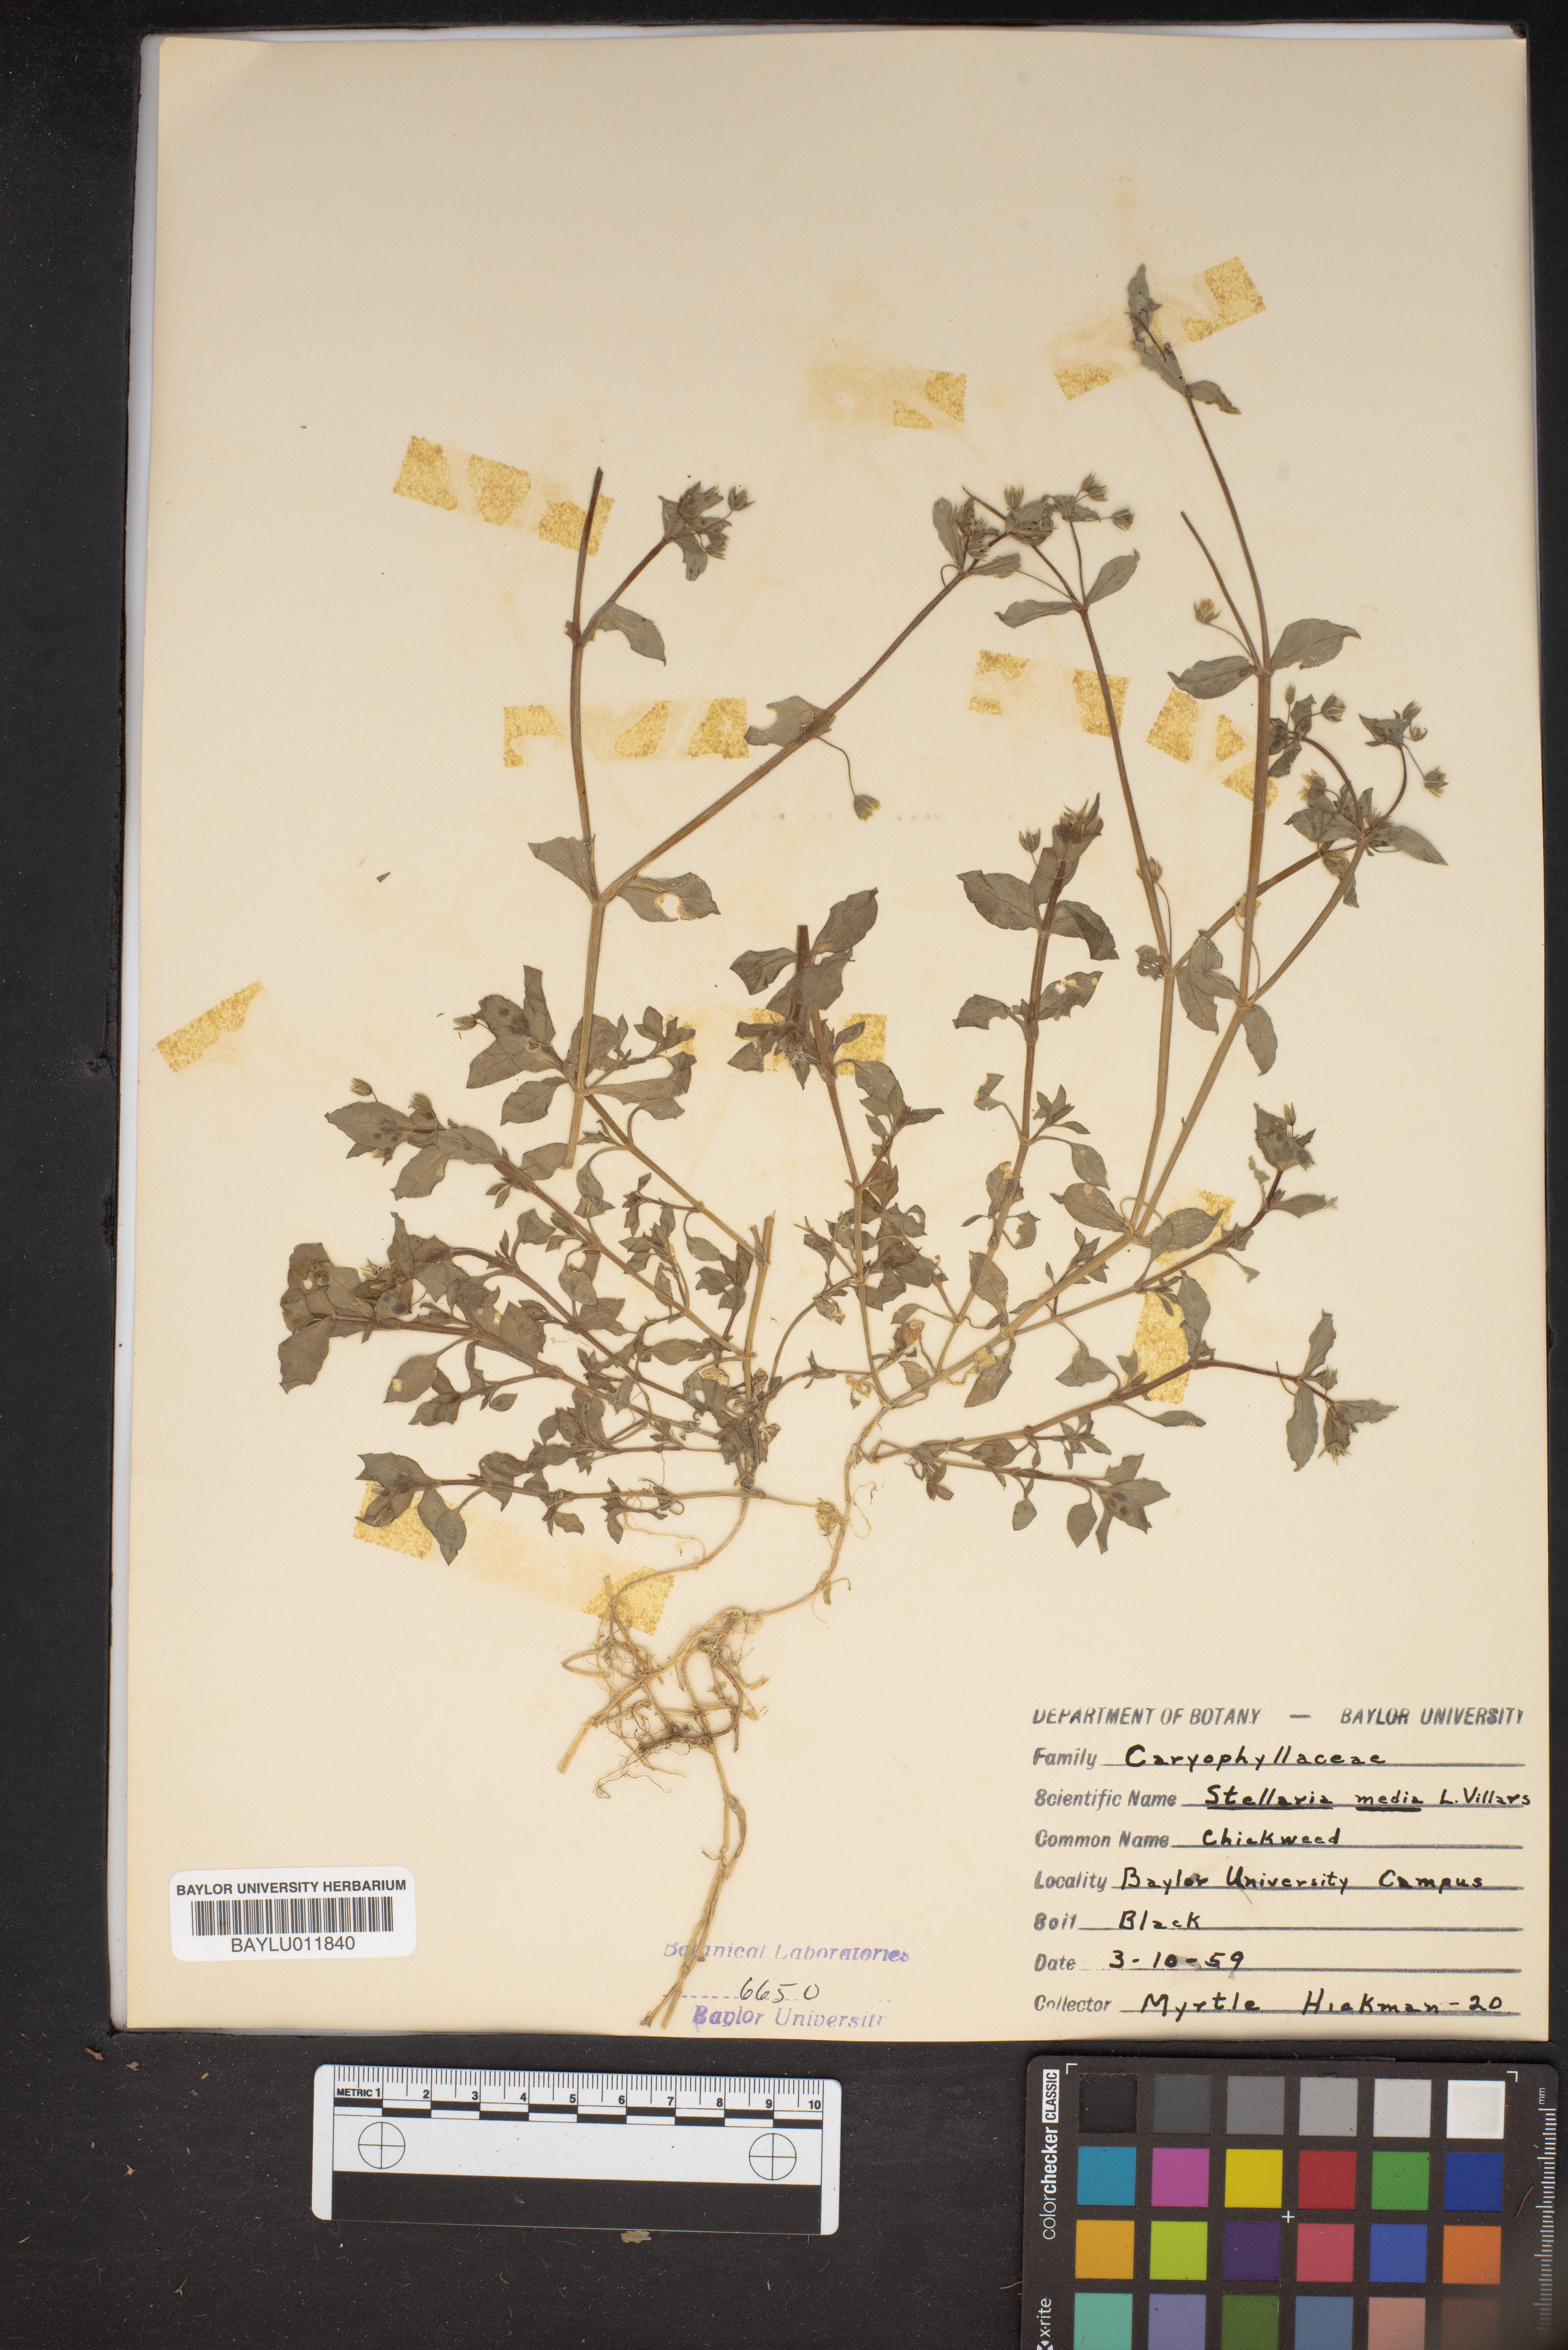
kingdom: Plantae
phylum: Tracheophyta
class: Magnoliopsida
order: Caryophyllales
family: Caryophyllaceae
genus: Stellaria
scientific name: Stellaria media
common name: Common chickweed
